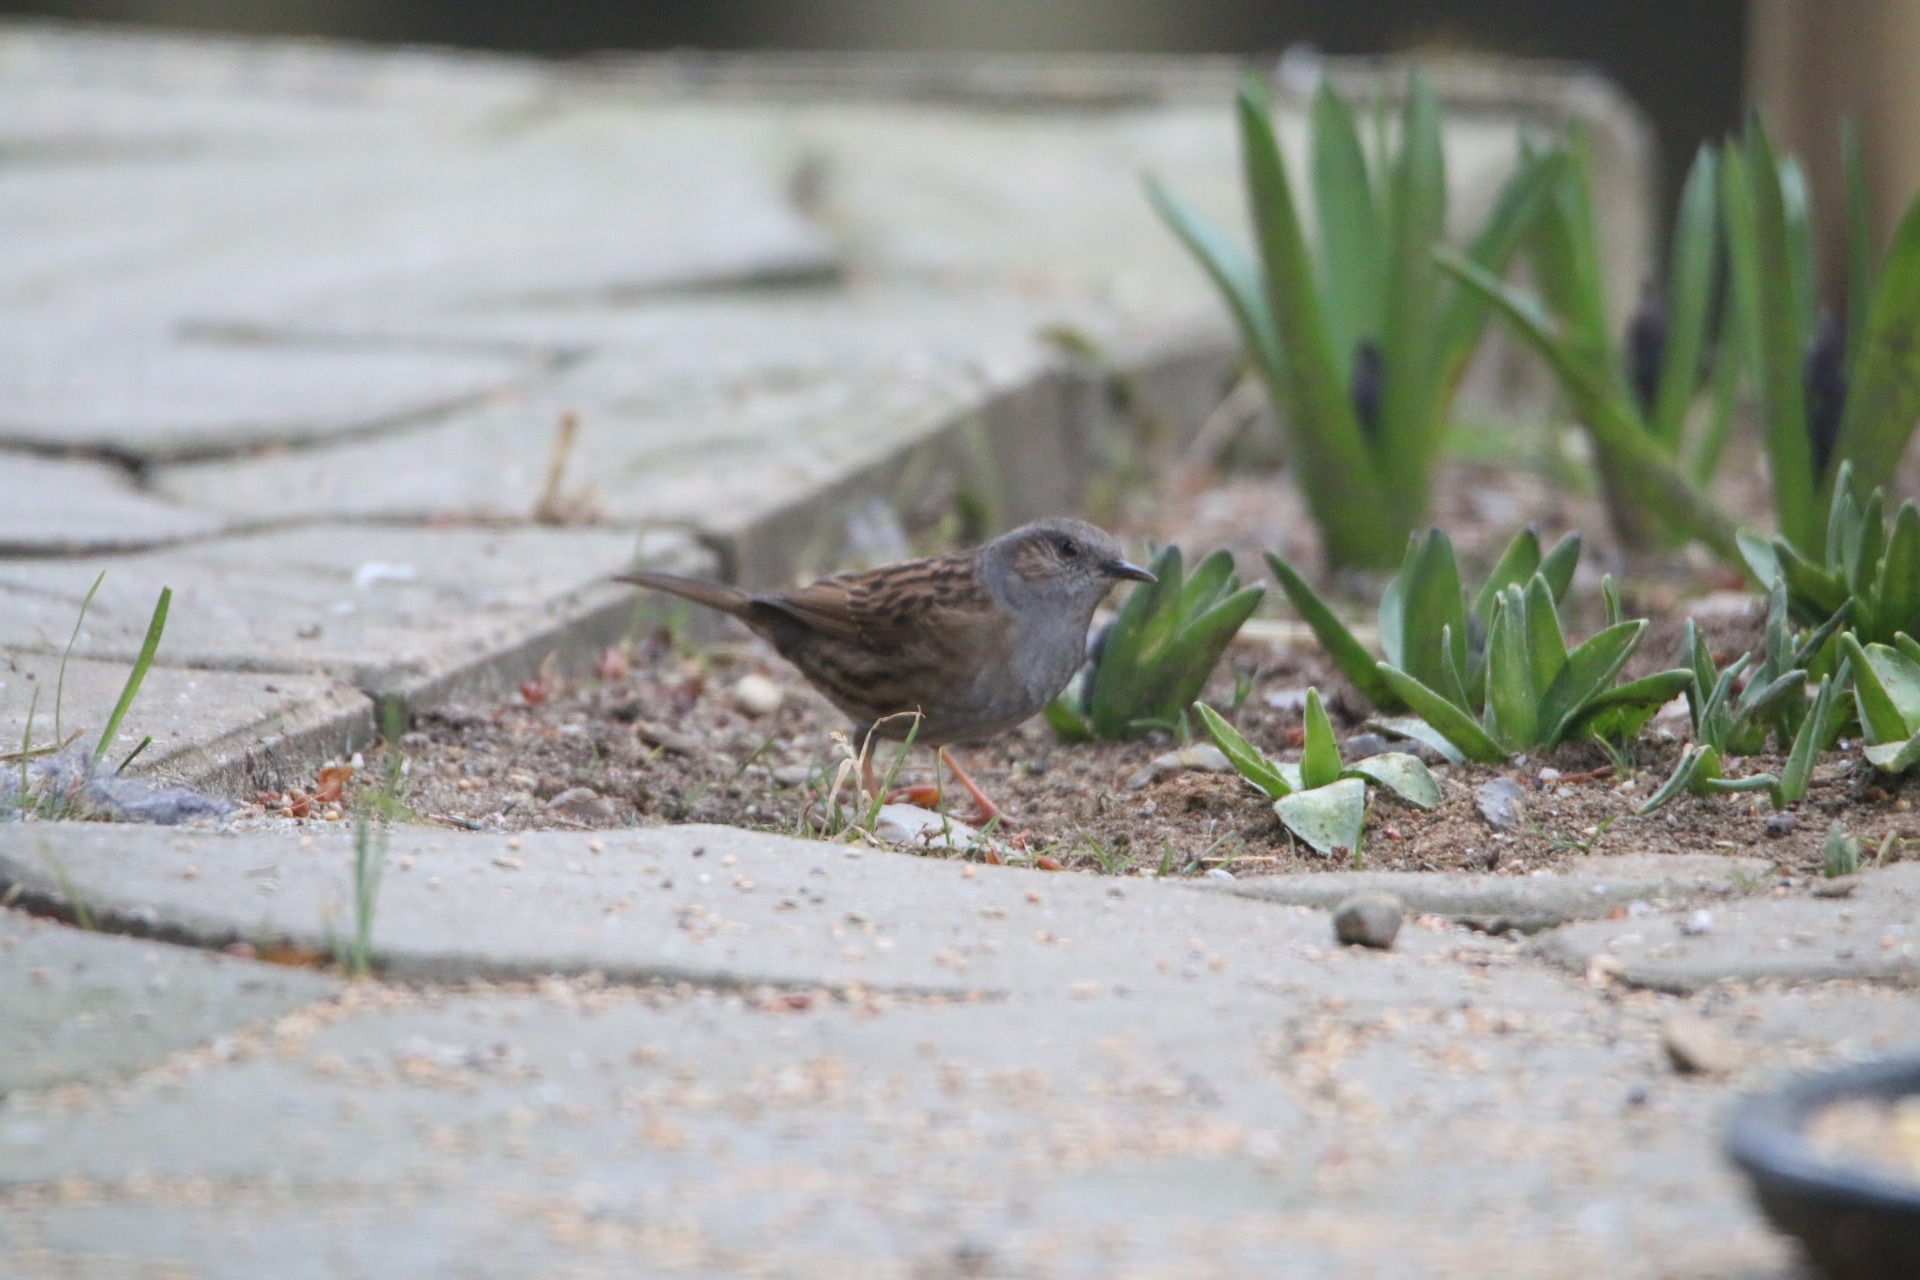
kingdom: Animalia
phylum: Chordata
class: Aves
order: Passeriformes
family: Prunellidae
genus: Prunella
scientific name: Prunella modularis
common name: Jernspurv
